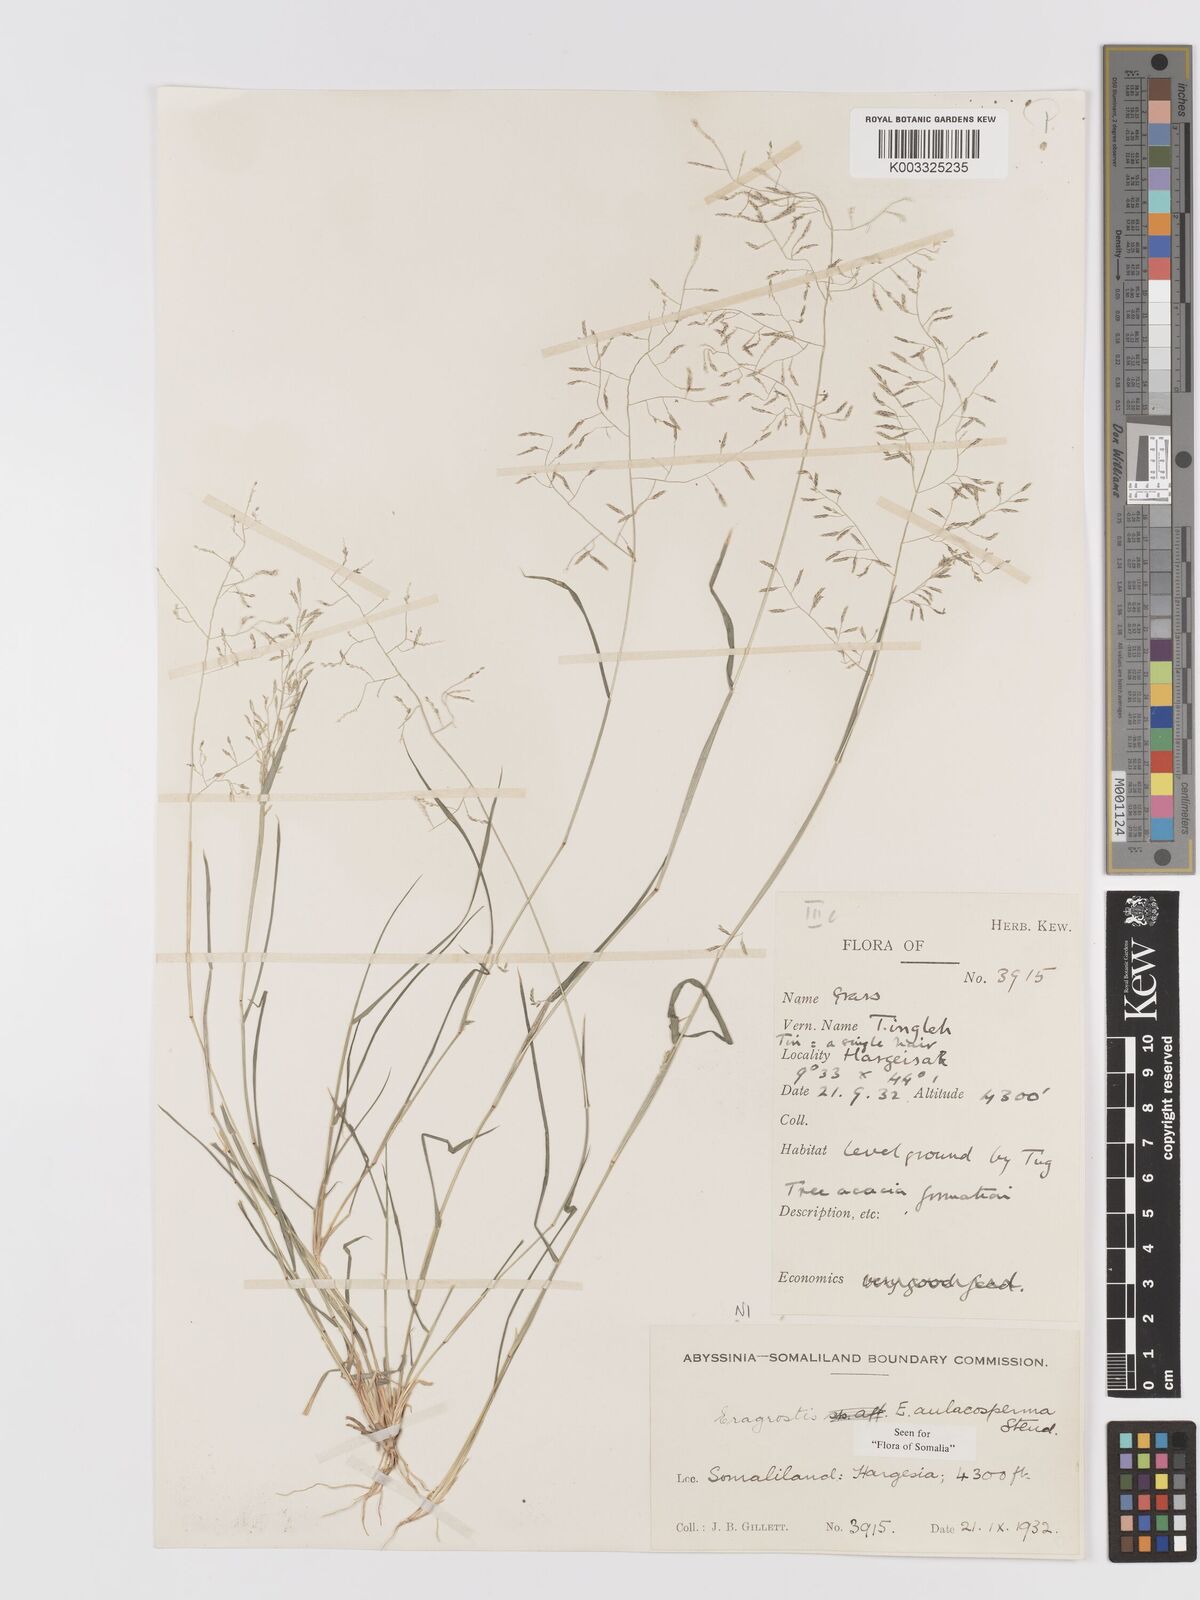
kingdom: Plantae
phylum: Tracheophyta
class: Liliopsida
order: Poales
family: Poaceae
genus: Eragrostis
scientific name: Eragrostis papposa
